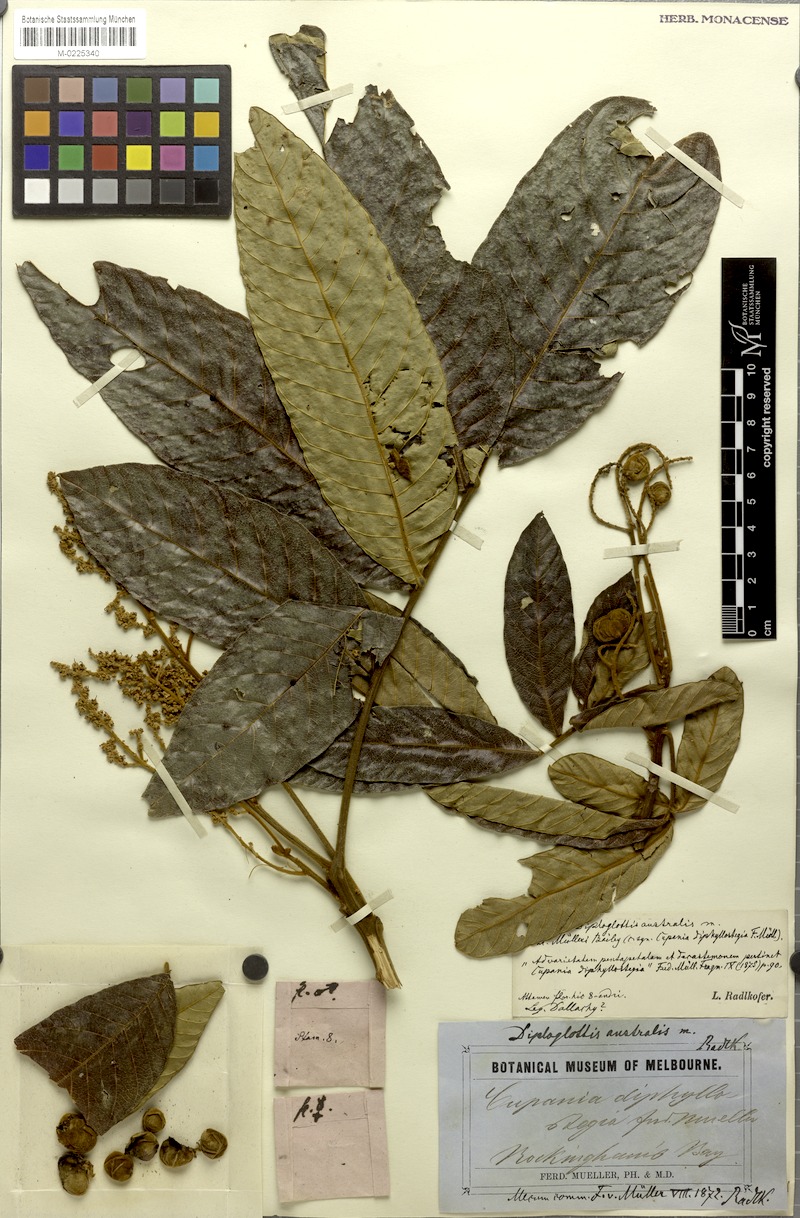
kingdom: Plantae
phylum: Tracheophyta
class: Magnoliopsida
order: Sapindales
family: Sapindaceae
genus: Diploglottis
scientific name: Diploglottis australis
